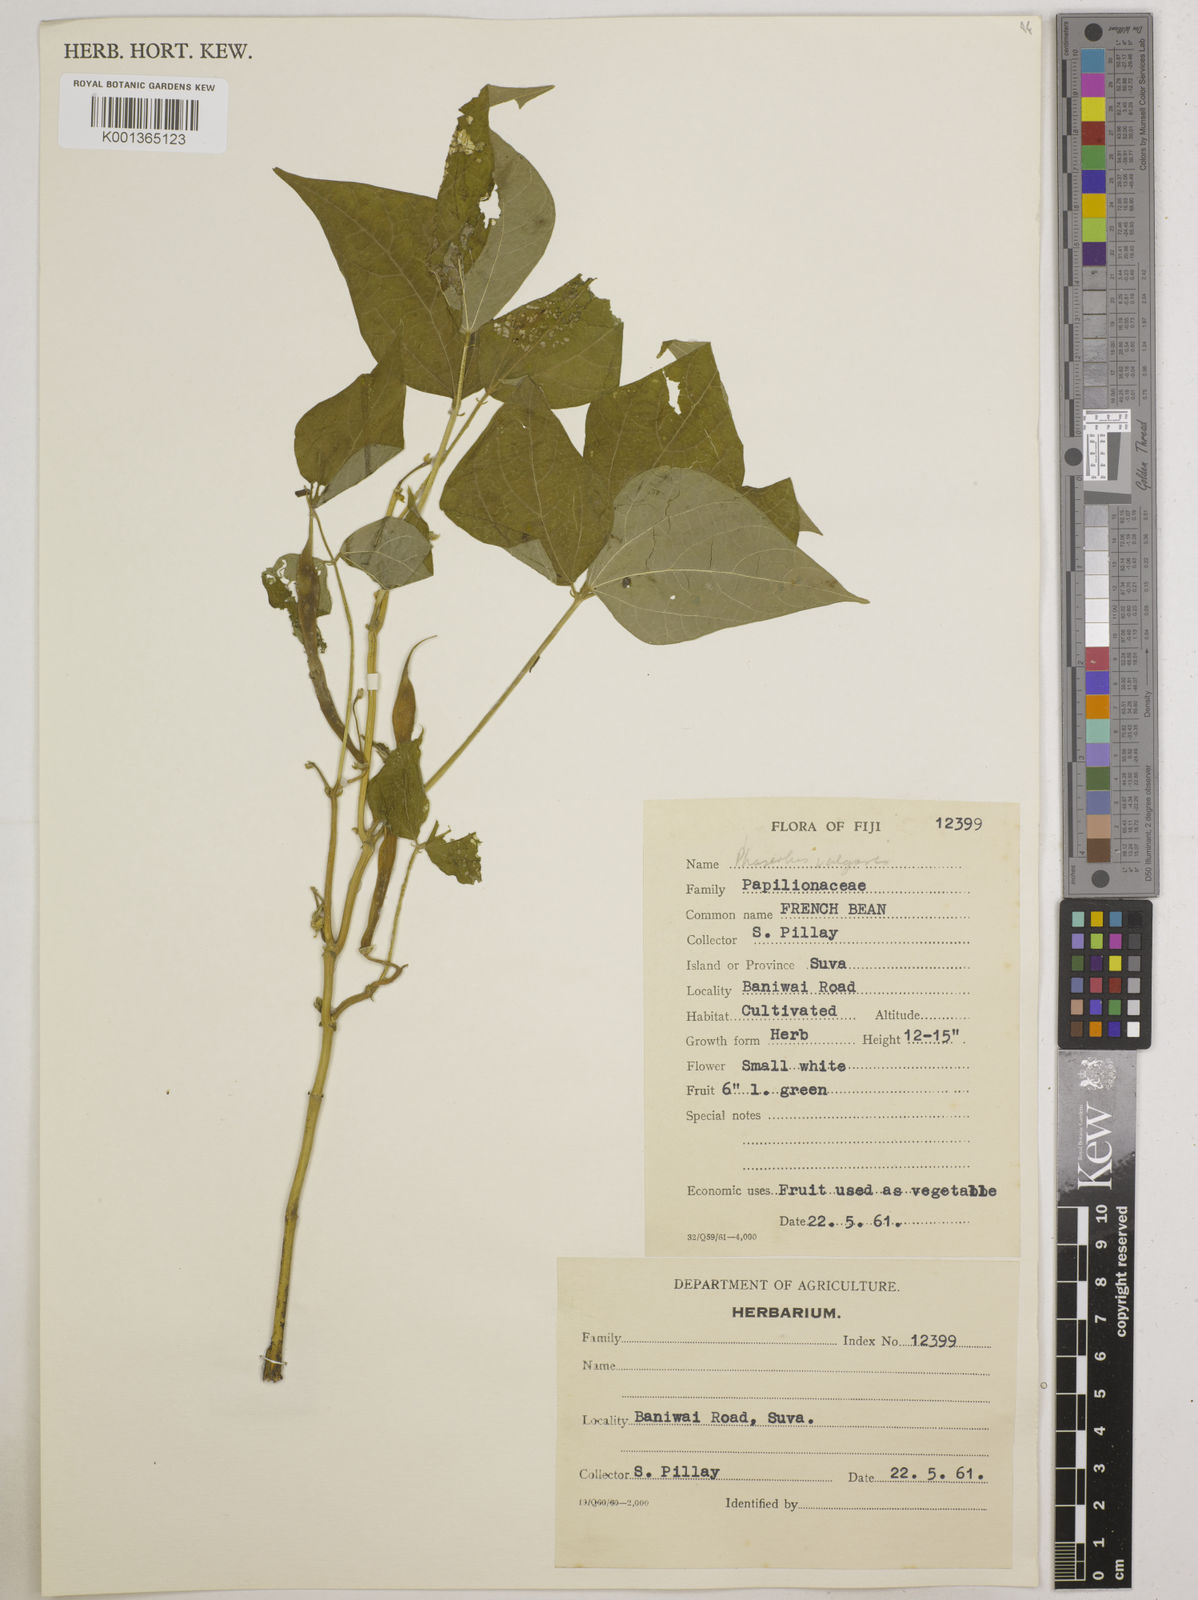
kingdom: Plantae
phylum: Tracheophyta
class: Magnoliopsida
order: Fabales
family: Fabaceae
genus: Phaseolus
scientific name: Phaseolus vulgaris
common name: Bean
